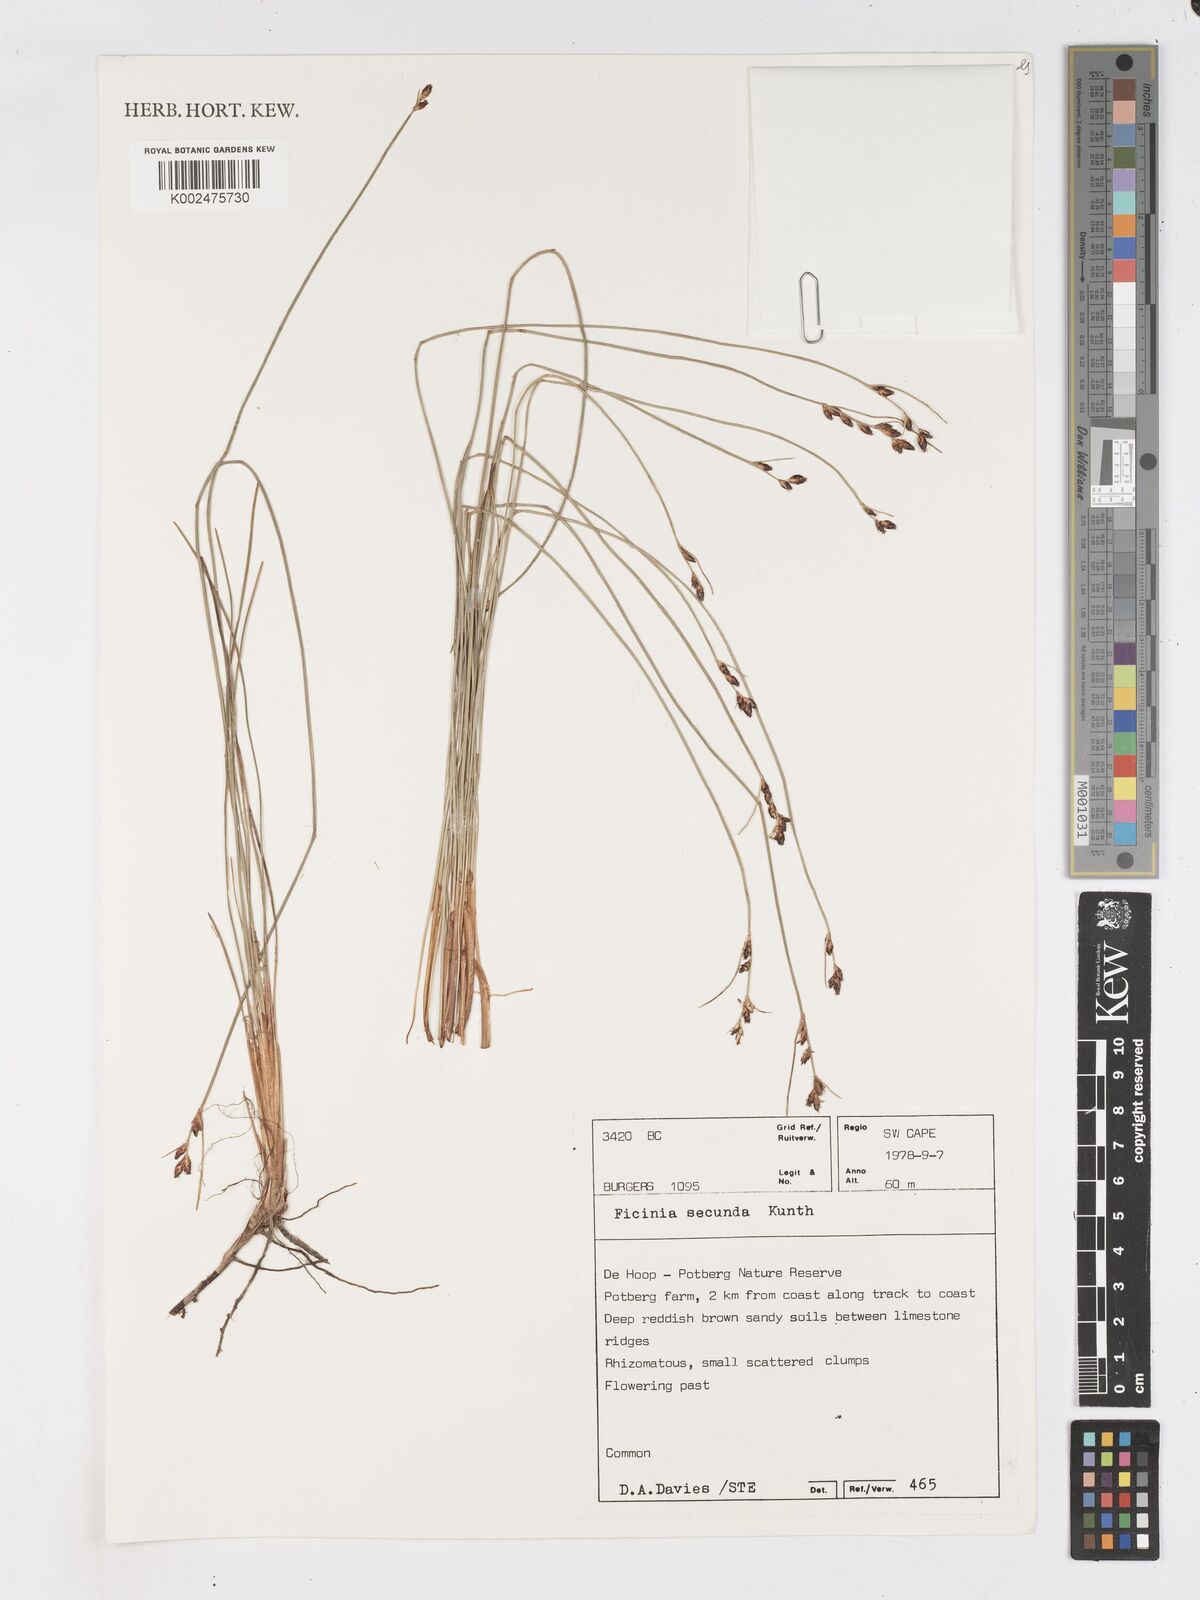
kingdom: Plantae
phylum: Tracheophyta
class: Liliopsida
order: Poales
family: Cyperaceae
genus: Ficinia
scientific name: Ficinia secunda
